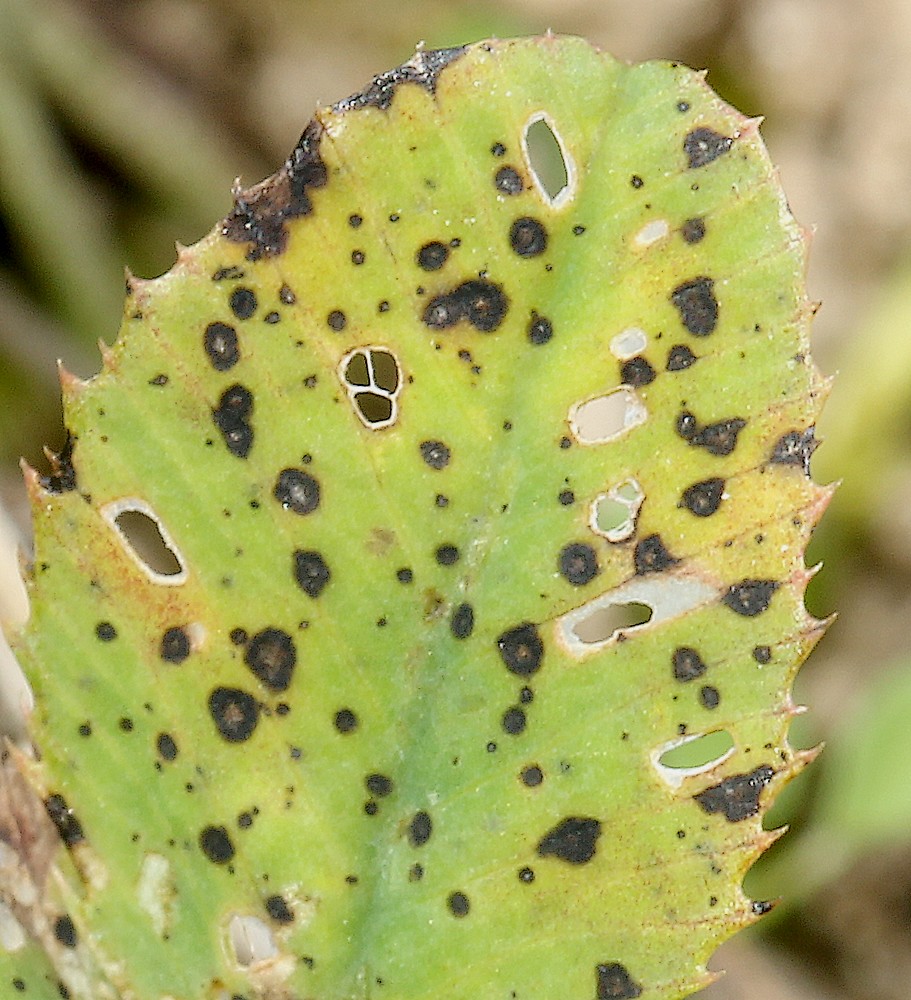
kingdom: Fungi
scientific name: Fungi
